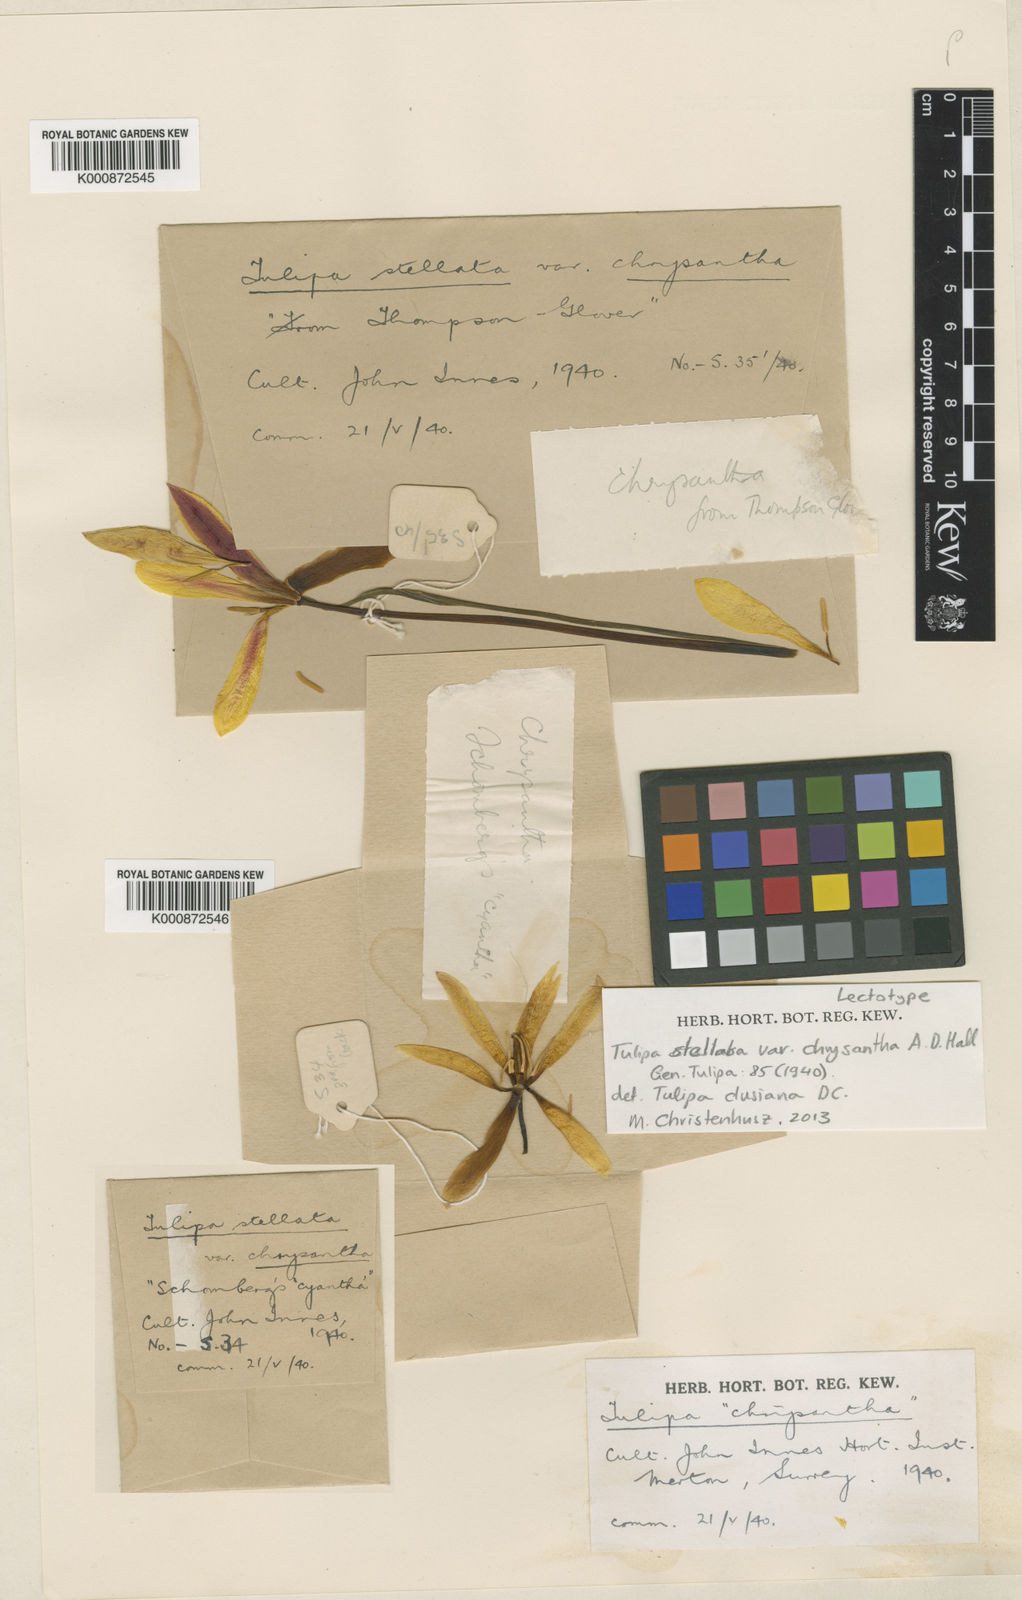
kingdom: Plantae
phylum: Tracheophyta
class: Liliopsida
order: Liliales
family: Liliaceae
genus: Tulipa
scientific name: Tulipa
